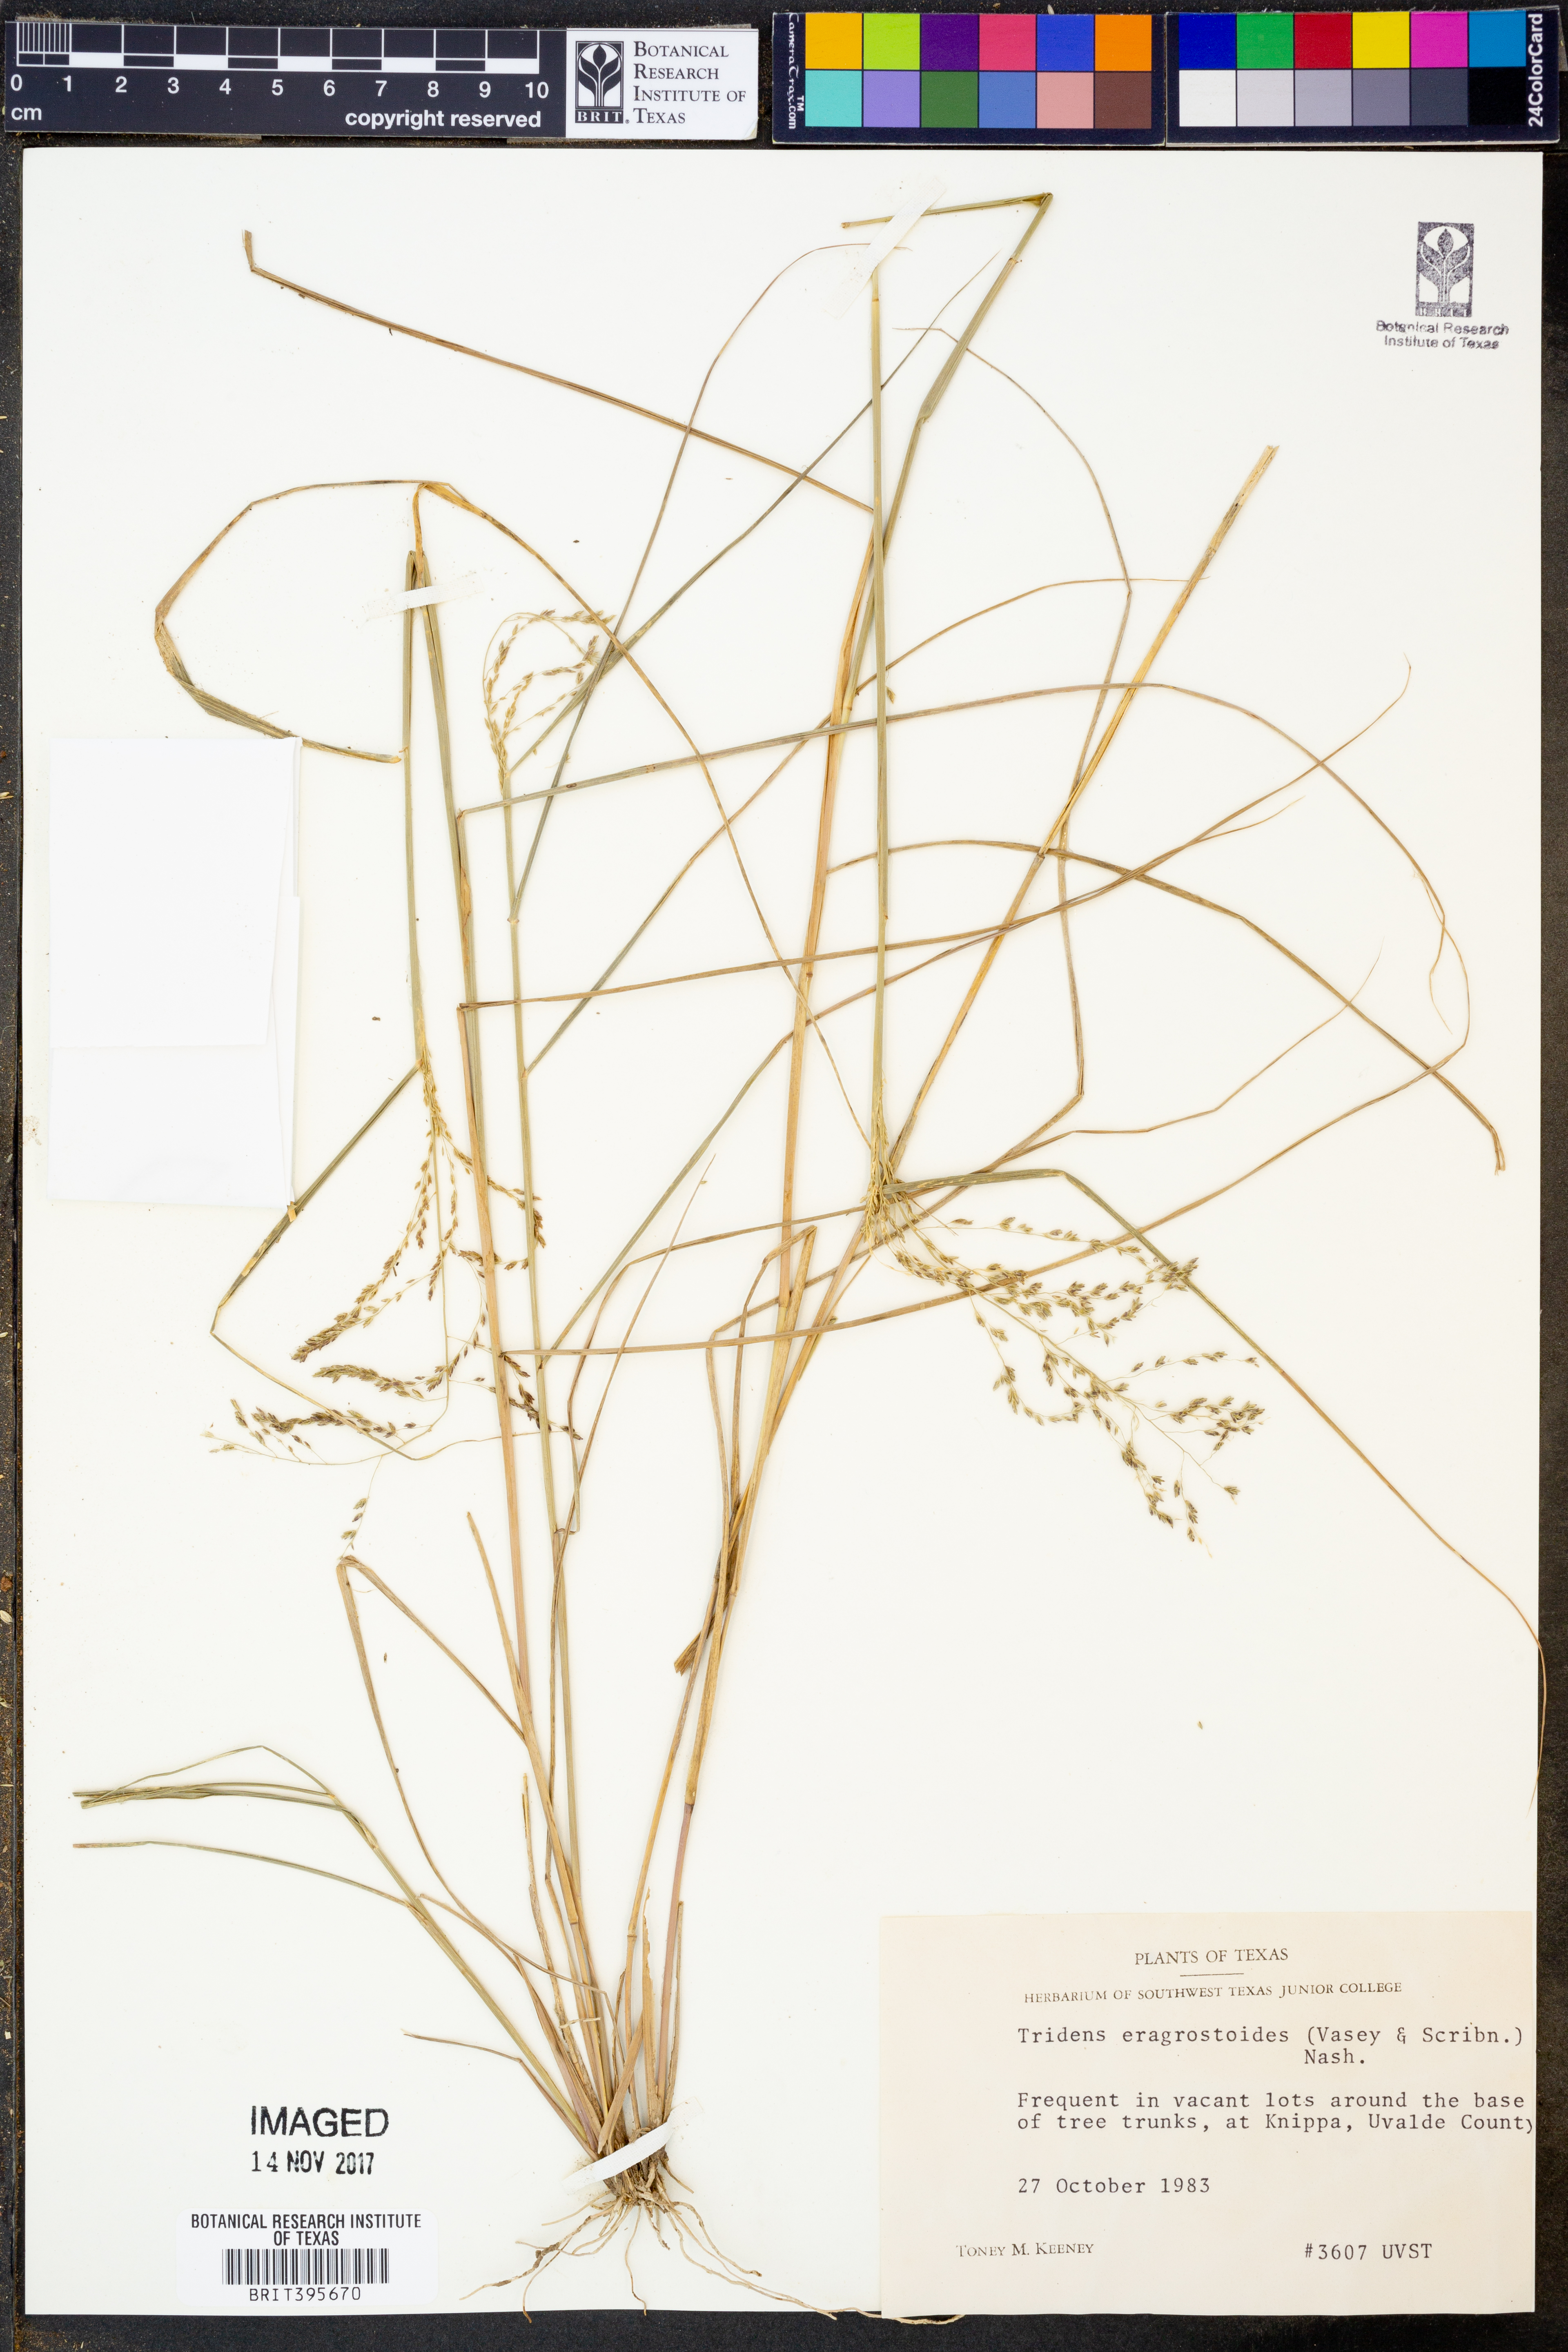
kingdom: Plantae
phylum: Tracheophyta
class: Liliopsida
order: Poales
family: Poaceae
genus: Triplasiella
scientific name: Triplasiella eragrostoides
